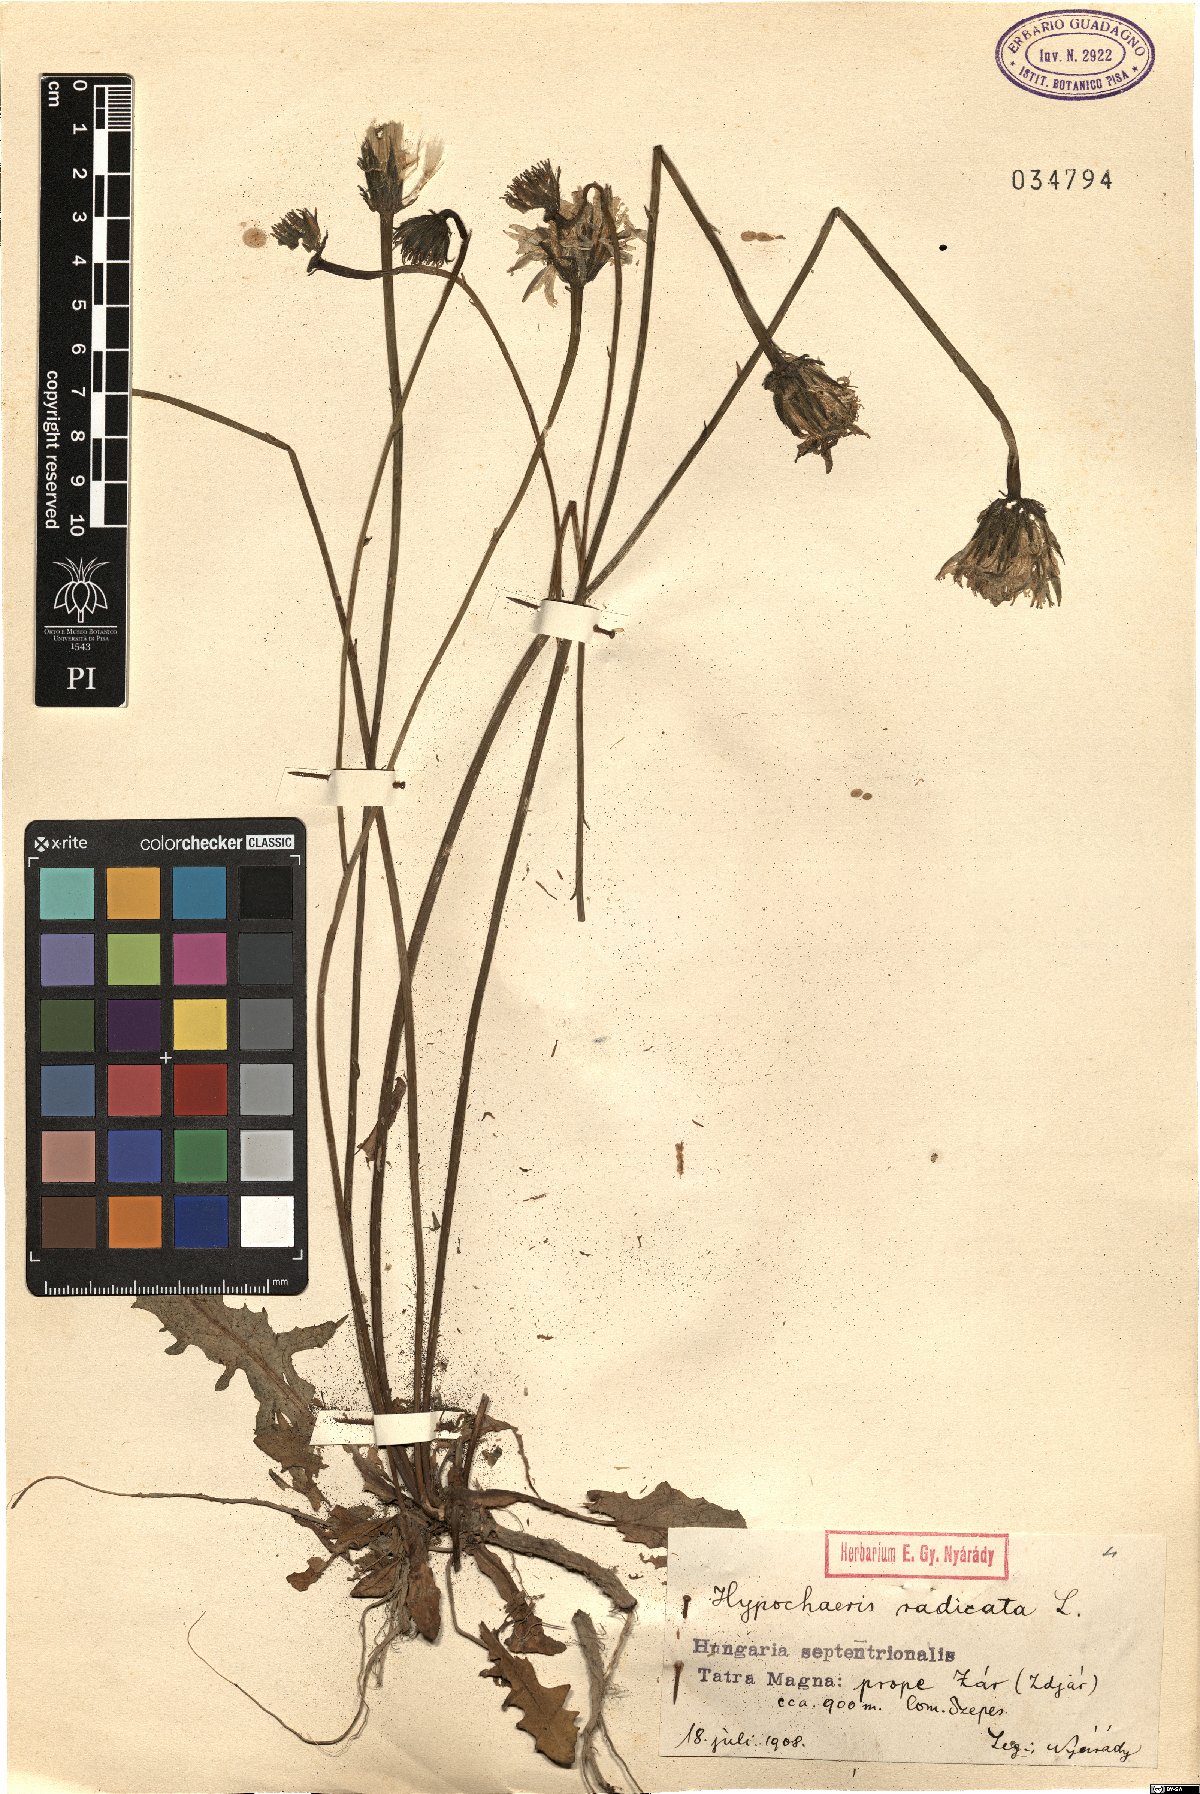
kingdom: Plantae
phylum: Tracheophyta
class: Magnoliopsida
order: Asterales
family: Asteraceae
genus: Hypochaeris
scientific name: Hypochaeris radicata
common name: Flatweed
